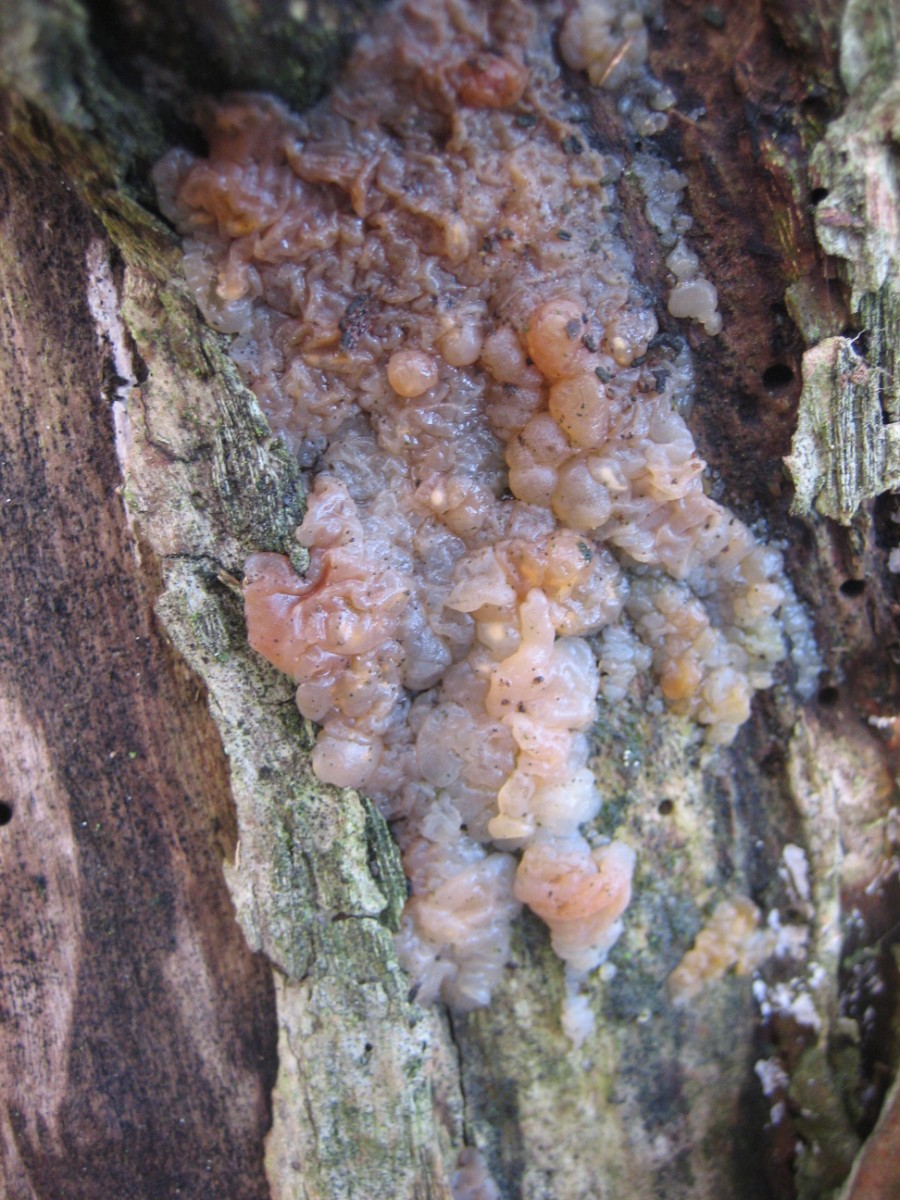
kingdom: Fungi
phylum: Basidiomycota
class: Agaricomycetes
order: Auriculariales
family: Hyaloriaceae
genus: Myxarium
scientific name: Myxarium hyalinum
